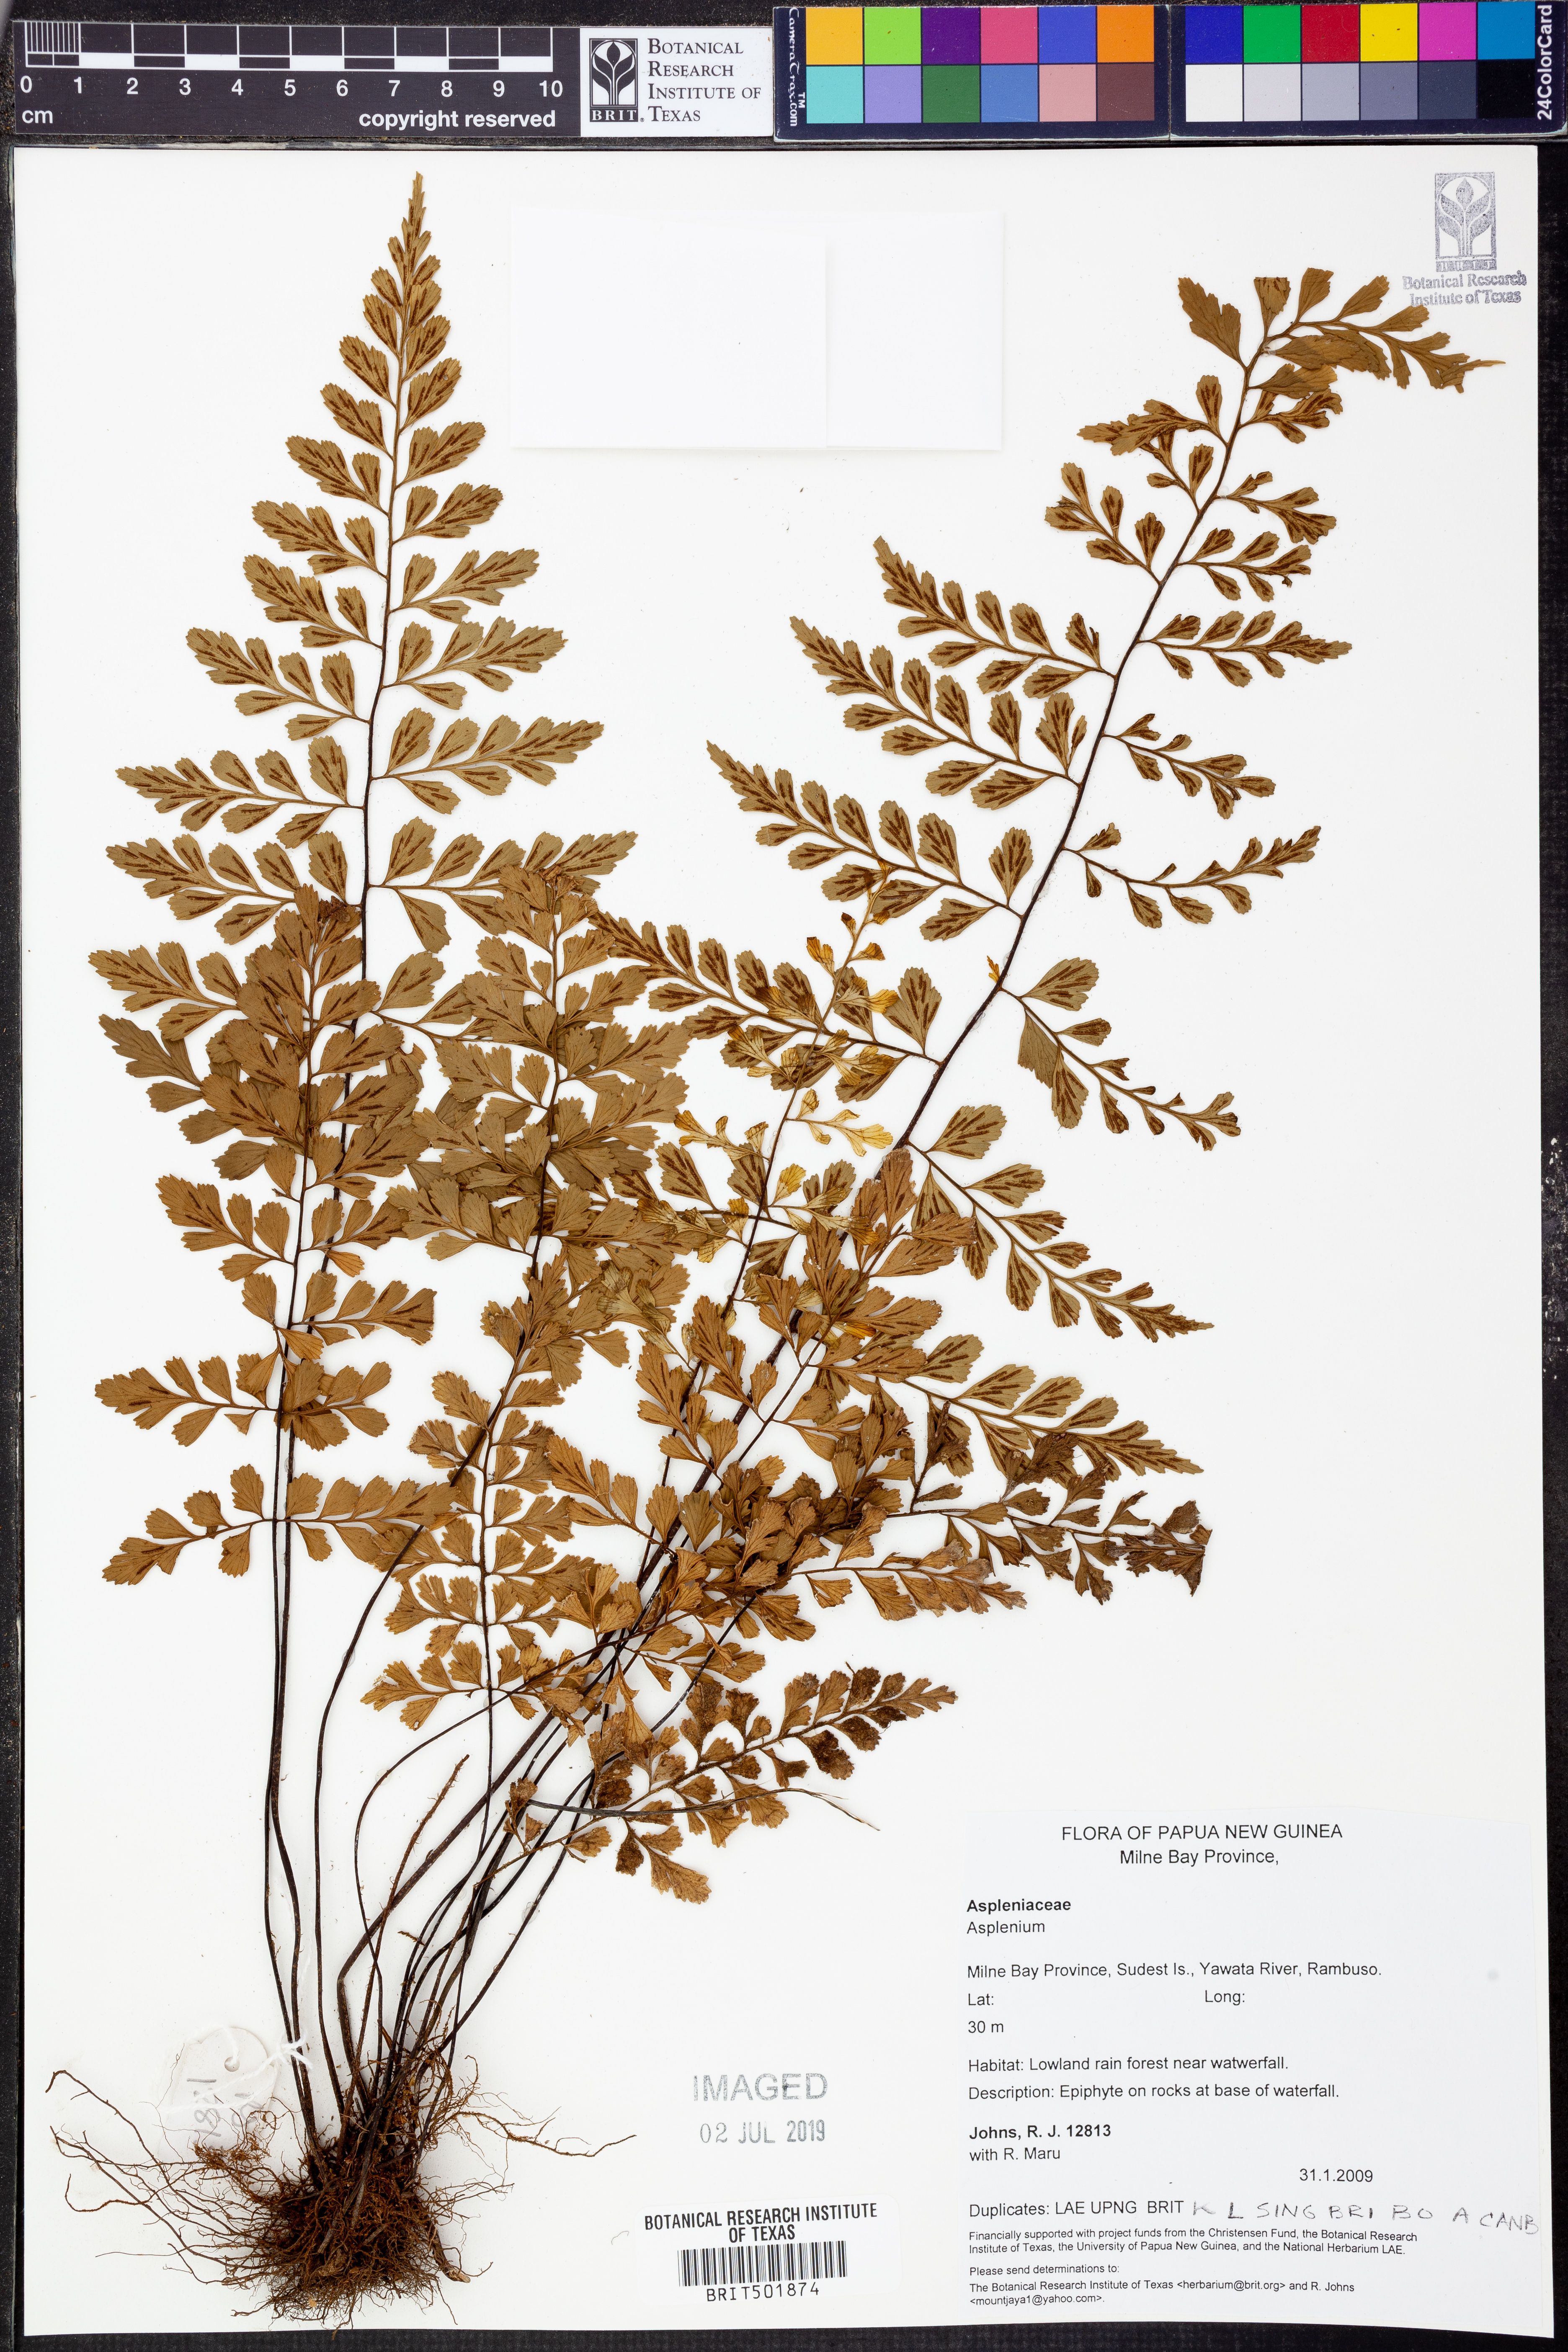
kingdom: Plantae
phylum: Tracheophyta
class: Polypodiopsida
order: Polypodiales
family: Aspleniaceae
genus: Asplenium
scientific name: Asplenium
